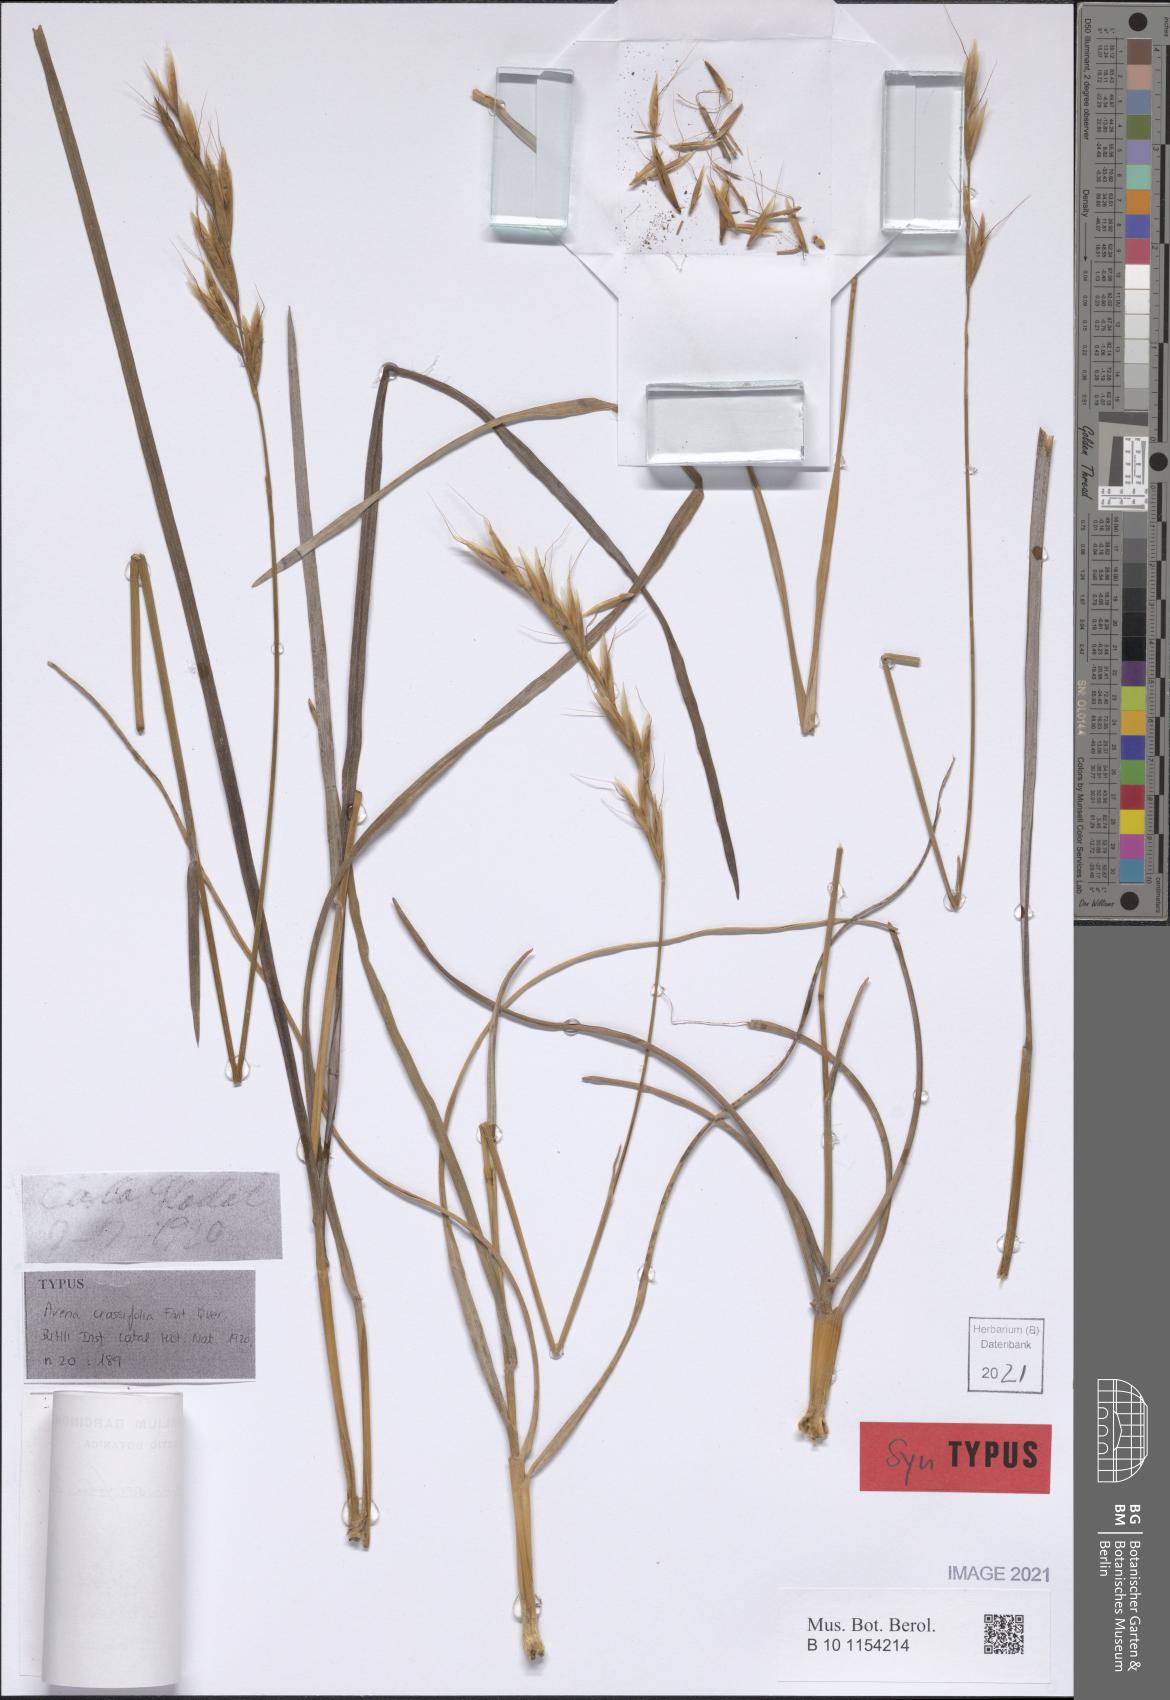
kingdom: Plantae
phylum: Tracheophyta
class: Liliopsida
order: Poales
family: Poaceae
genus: Helictochloa
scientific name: Helictochloa crassifolia
